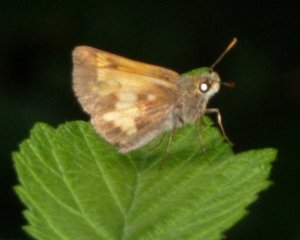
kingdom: Animalia
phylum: Arthropoda
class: Insecta
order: Lepidoptera
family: Hesperiidae
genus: Lon
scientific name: Lon hobomok
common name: Hobomok Skipper
